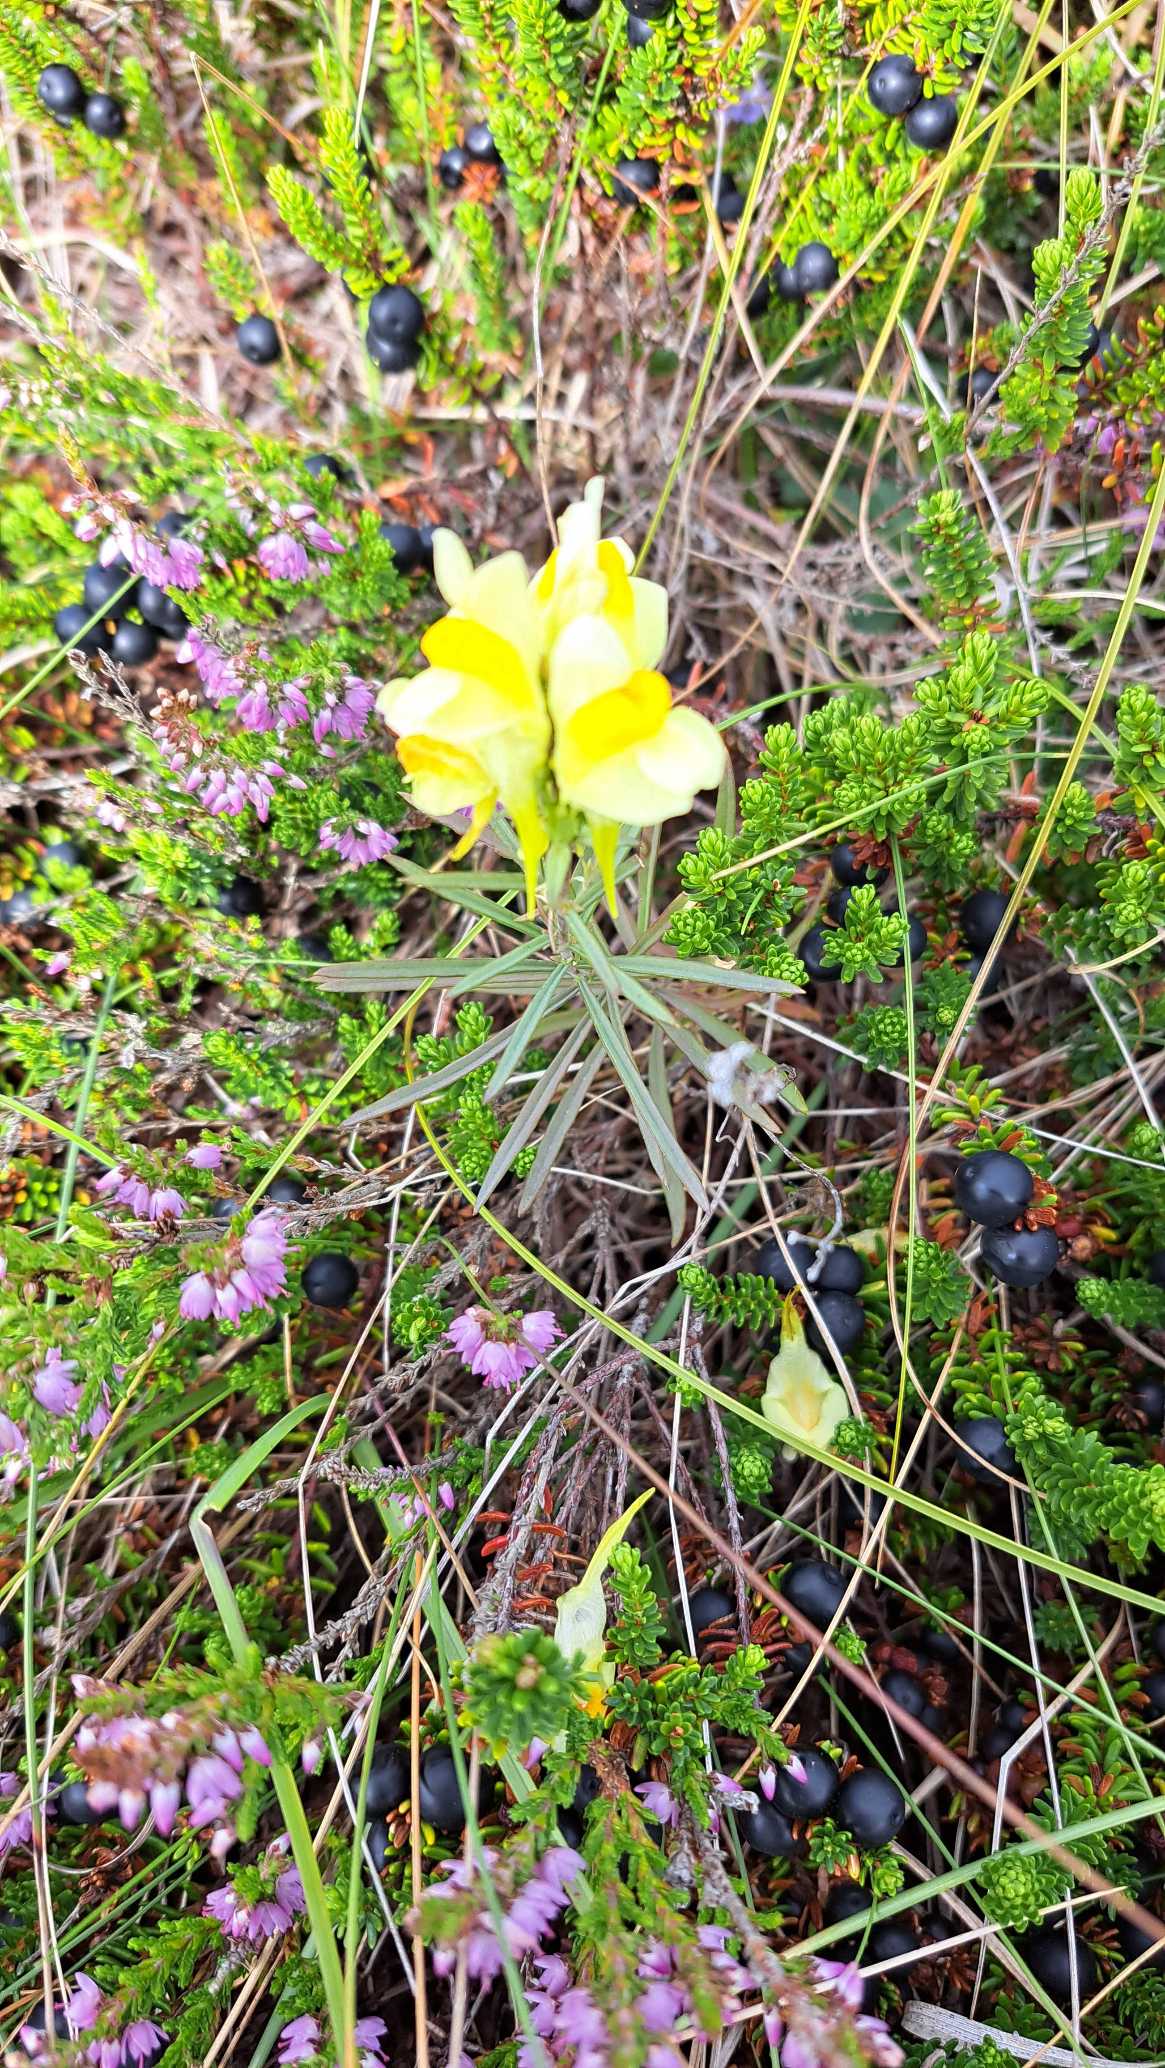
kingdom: Plantae
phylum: Tracheophyta
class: Magnoliopsida
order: Lamiales
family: Plantaginaceae
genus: Linaria
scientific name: Linaria vulgaris
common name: Almindelig torskemund
